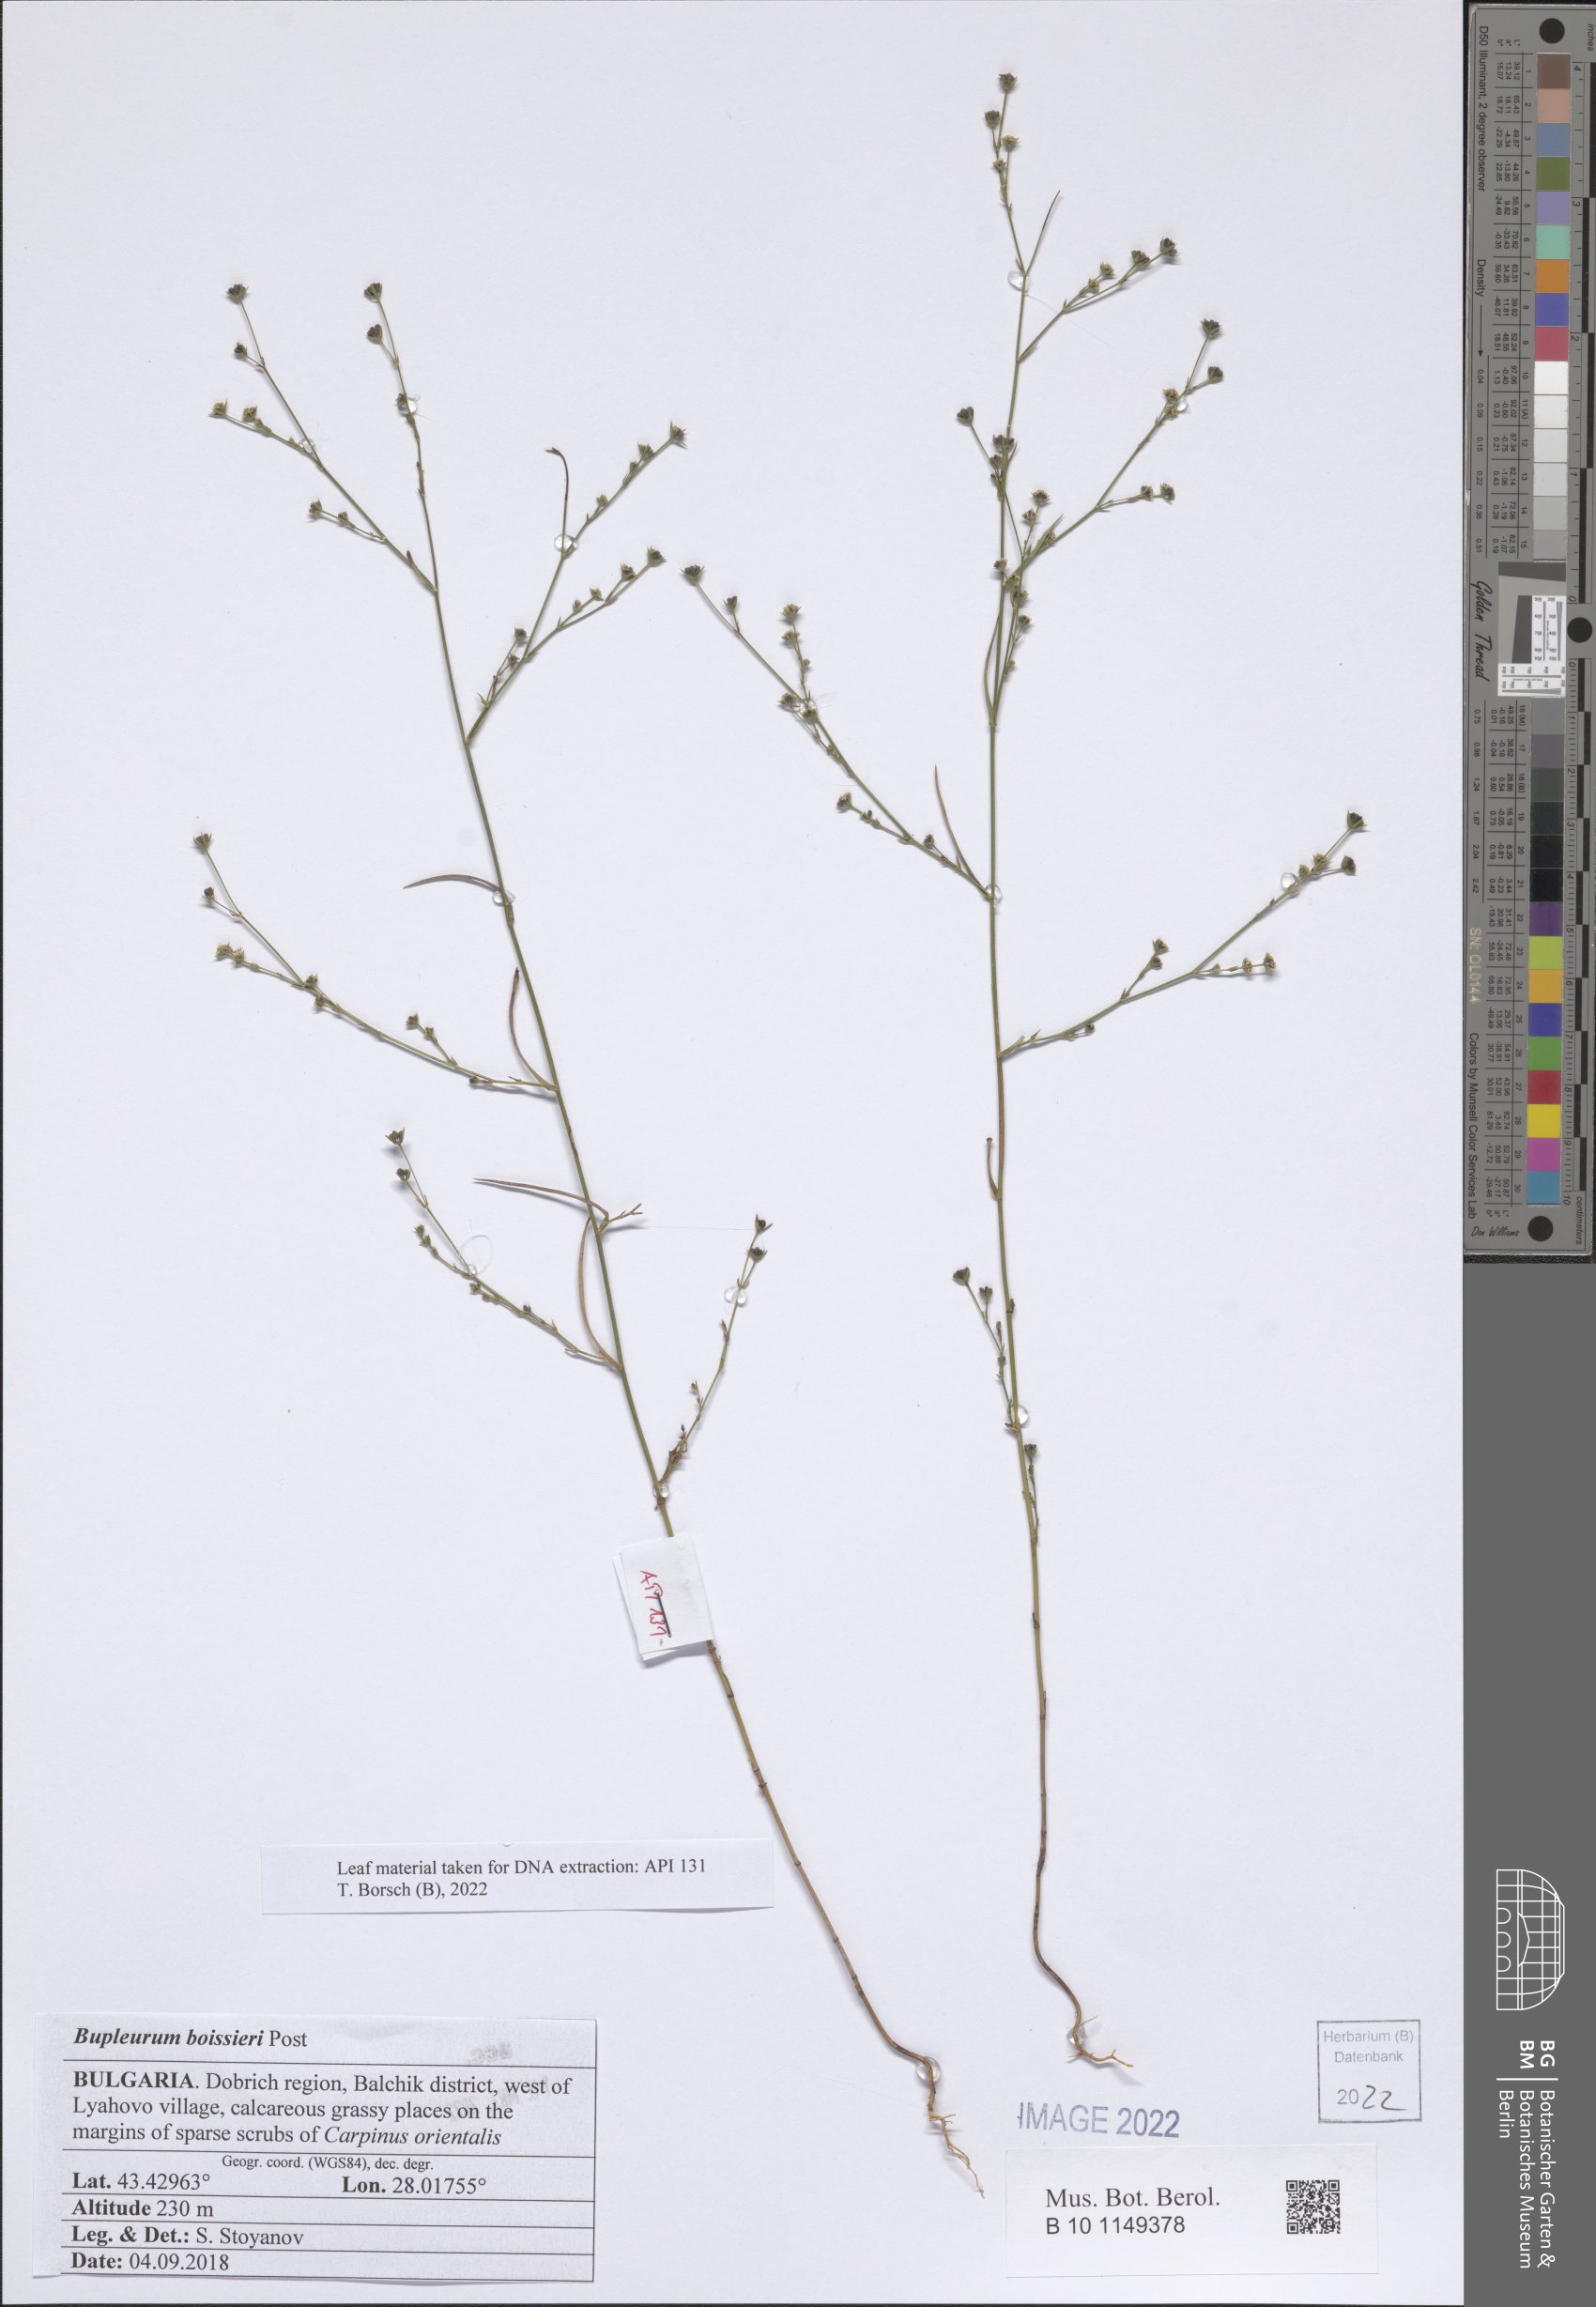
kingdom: Plantae
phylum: Tracheophyta
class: Magnoliopsida
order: Apiales
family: Apiaceae
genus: Bupleurum
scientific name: Bupleurum boissieri
